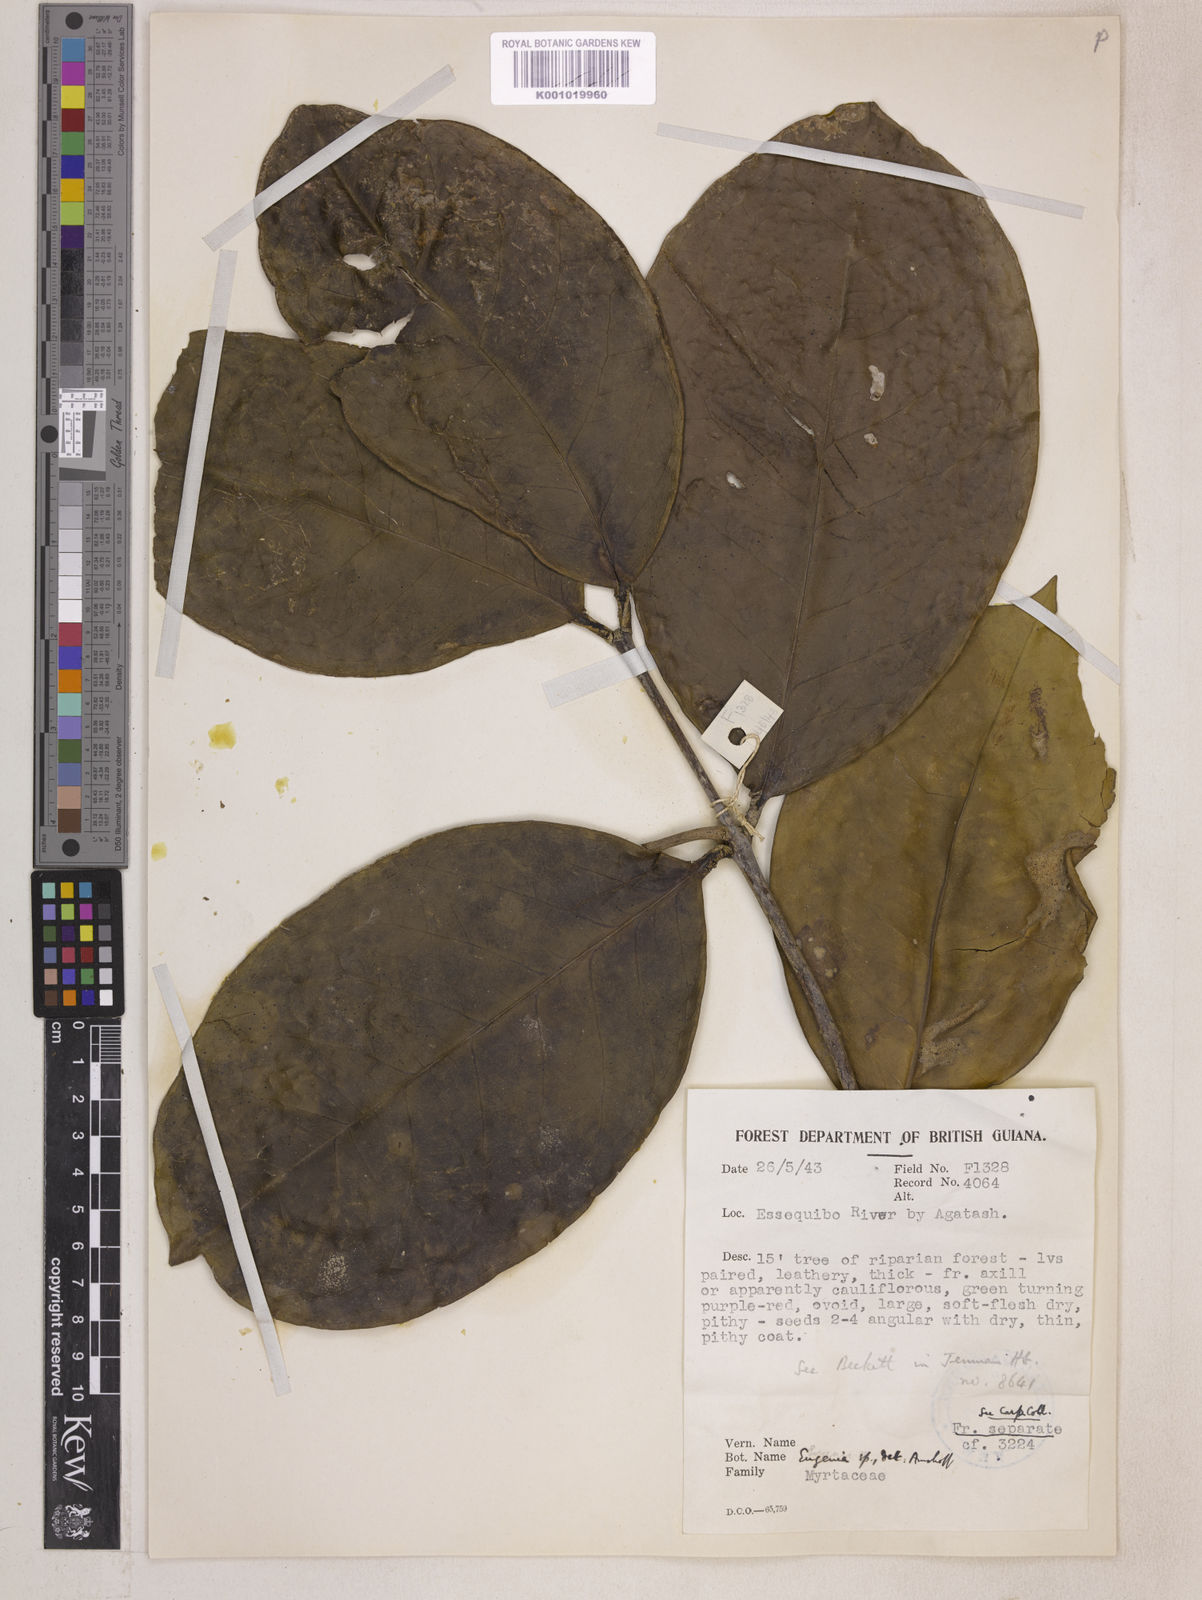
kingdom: Plantae
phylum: Tracheophyta
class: Magnoliopsida
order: Myrtales
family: Myrtaceae
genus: Eugenia
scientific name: Eugenia latifolia
